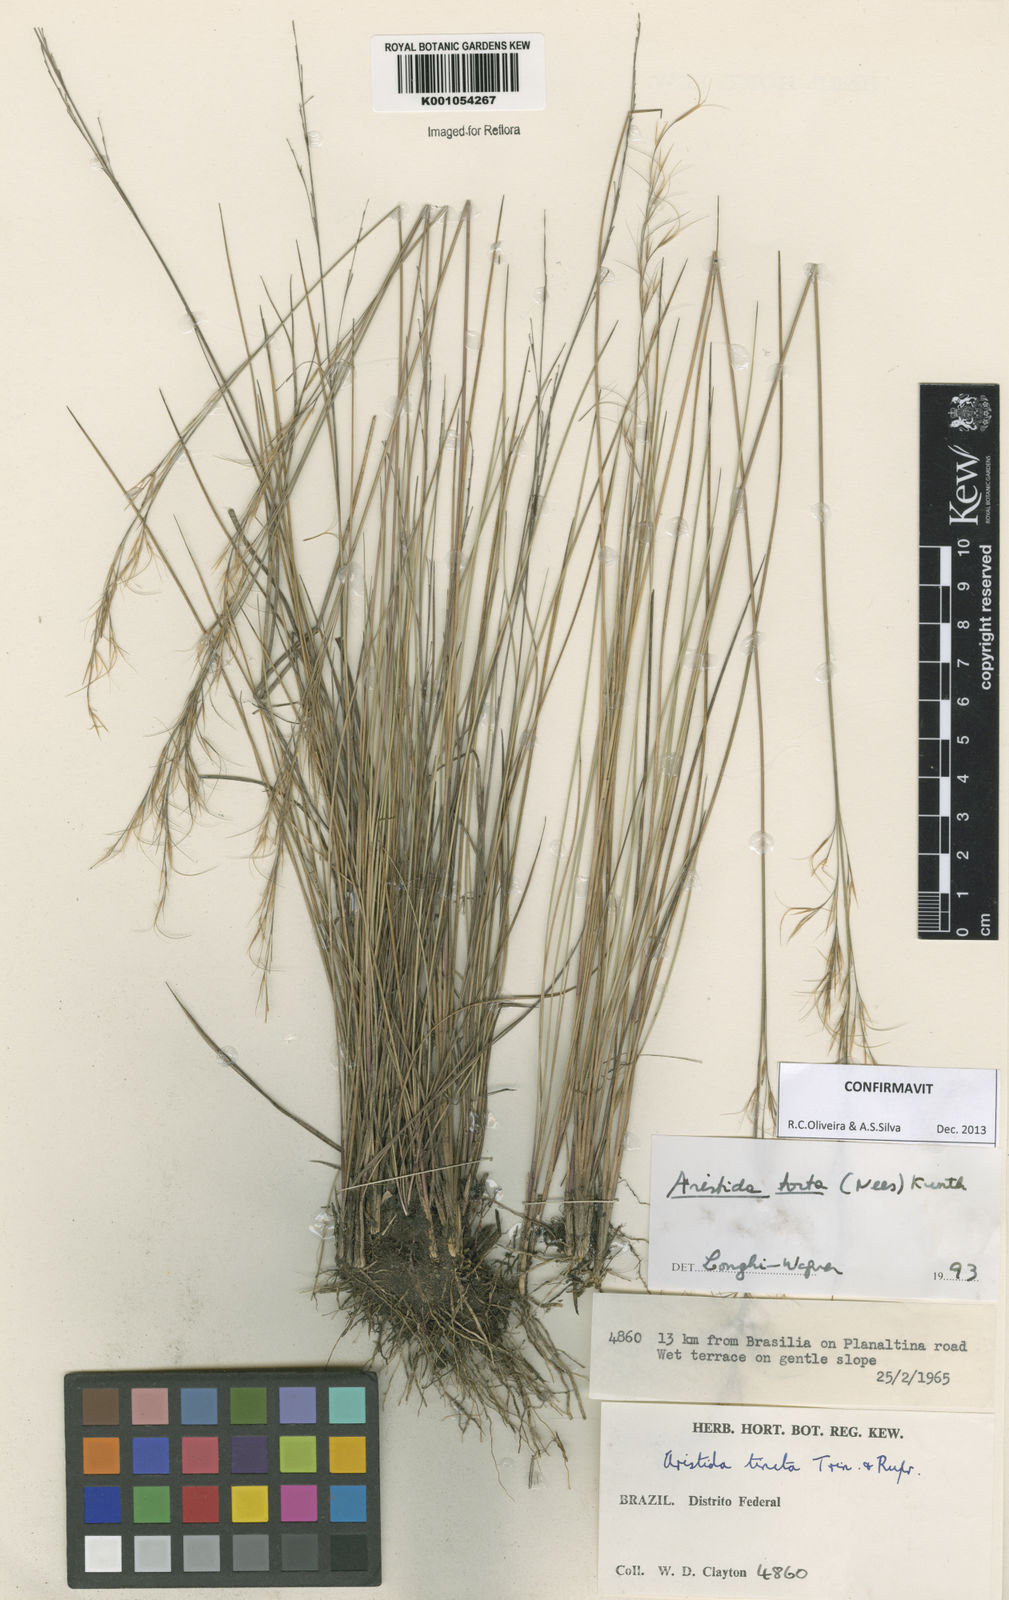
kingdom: Plantae
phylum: Tracheophyta
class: Liliopsida
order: Poales
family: Poaceae
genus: Aristida
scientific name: Aristida torta
